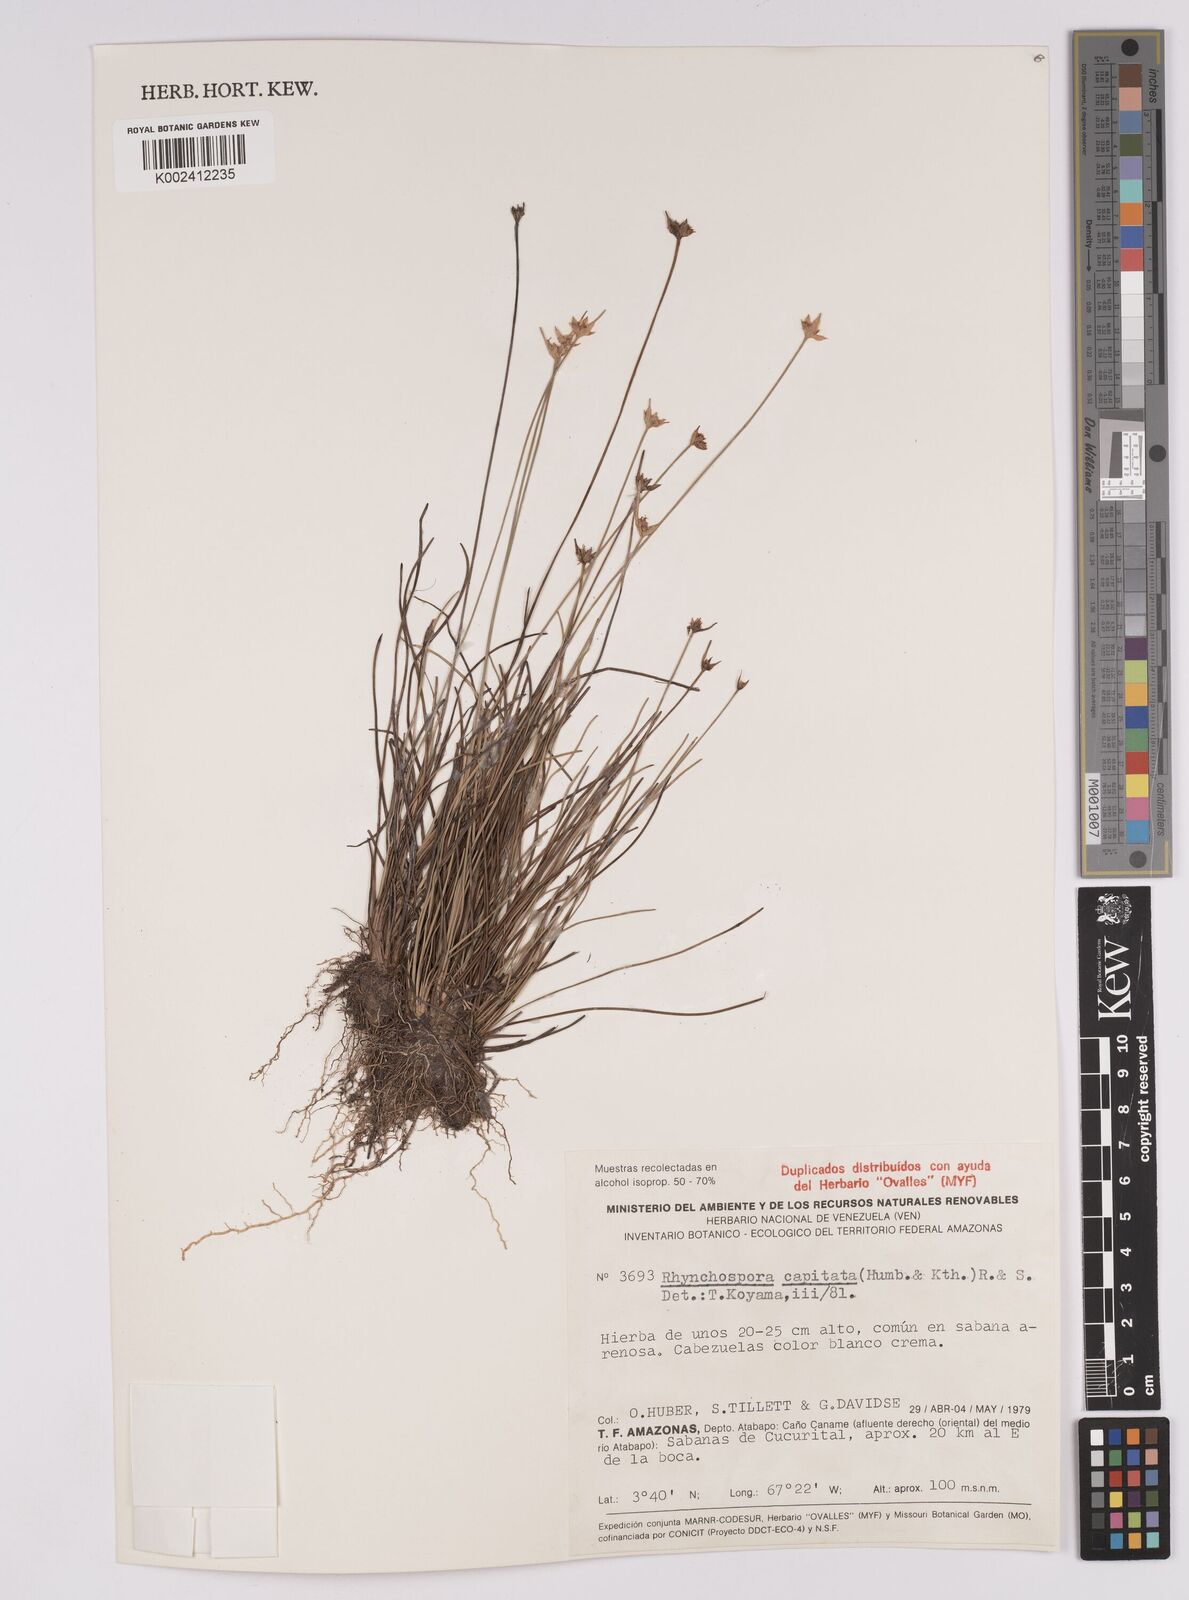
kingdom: Plantae
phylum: Tracheophyta
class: Liliopsida
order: Poales
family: Cyperaceae
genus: Rhynchospora
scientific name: Rhynchospora capitata
